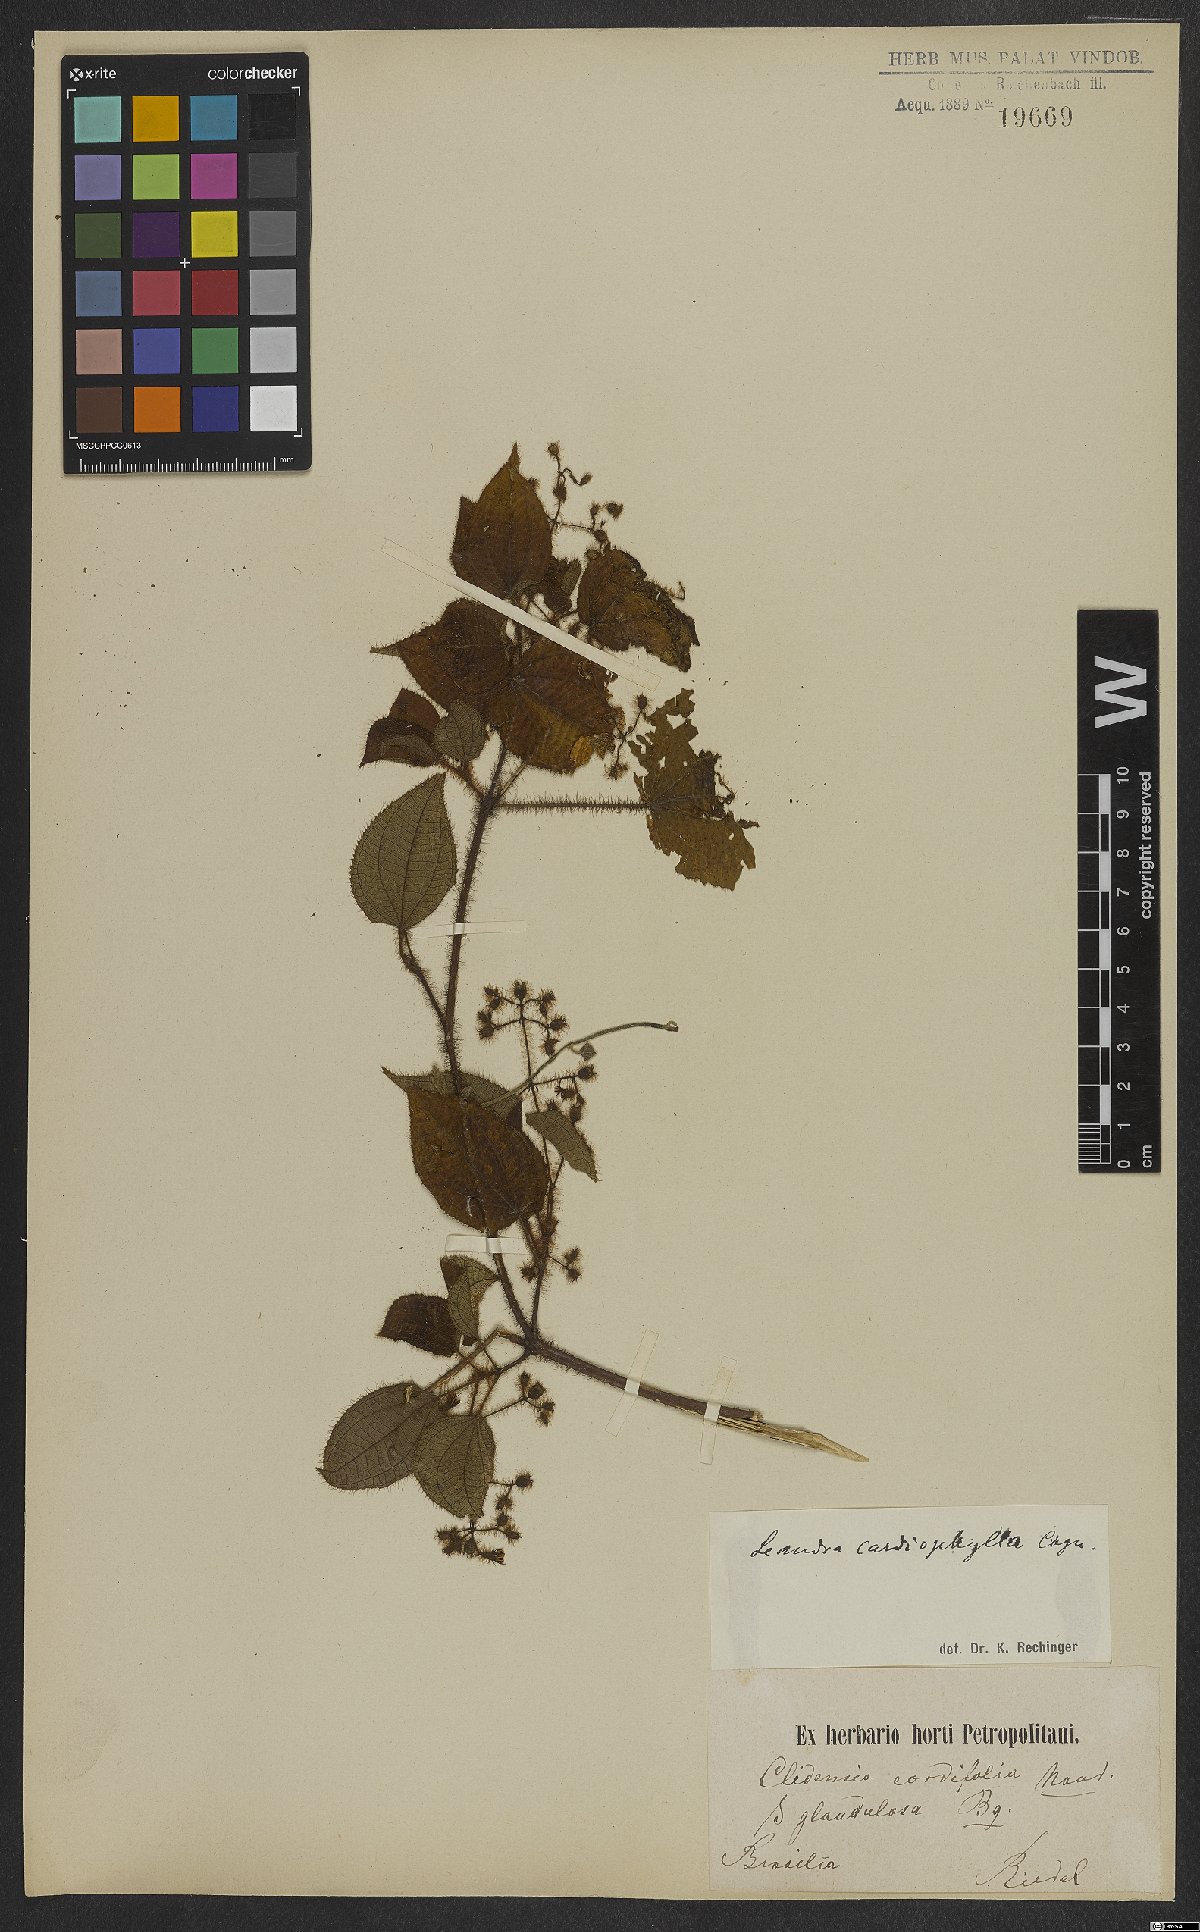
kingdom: Plantae
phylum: Tracheophyta
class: Magnoliopsida
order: Myrtales
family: Melastomataceae
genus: Miconia
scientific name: Miconia leacordifolia
